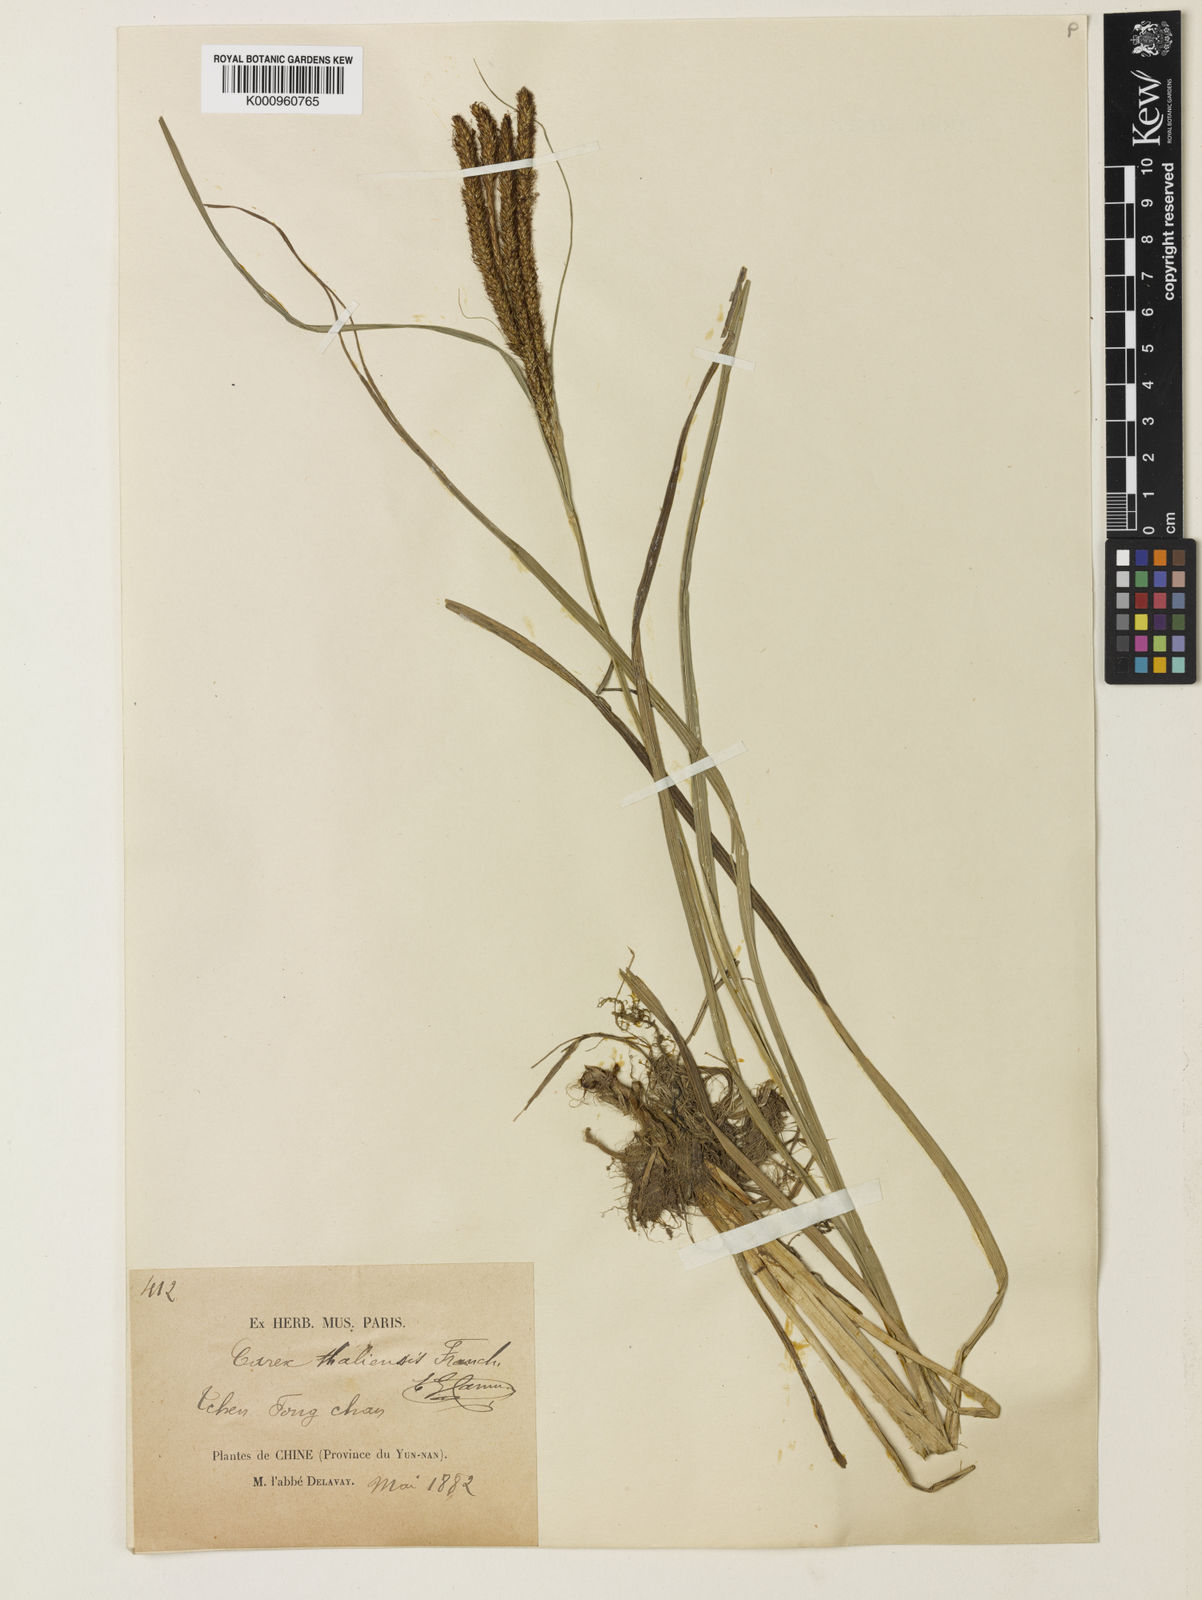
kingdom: Plantae
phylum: Tracheophyta
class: Liliopsida
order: Poales
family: Cyperaceae
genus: Carex
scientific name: Carex rubrobrunnea
